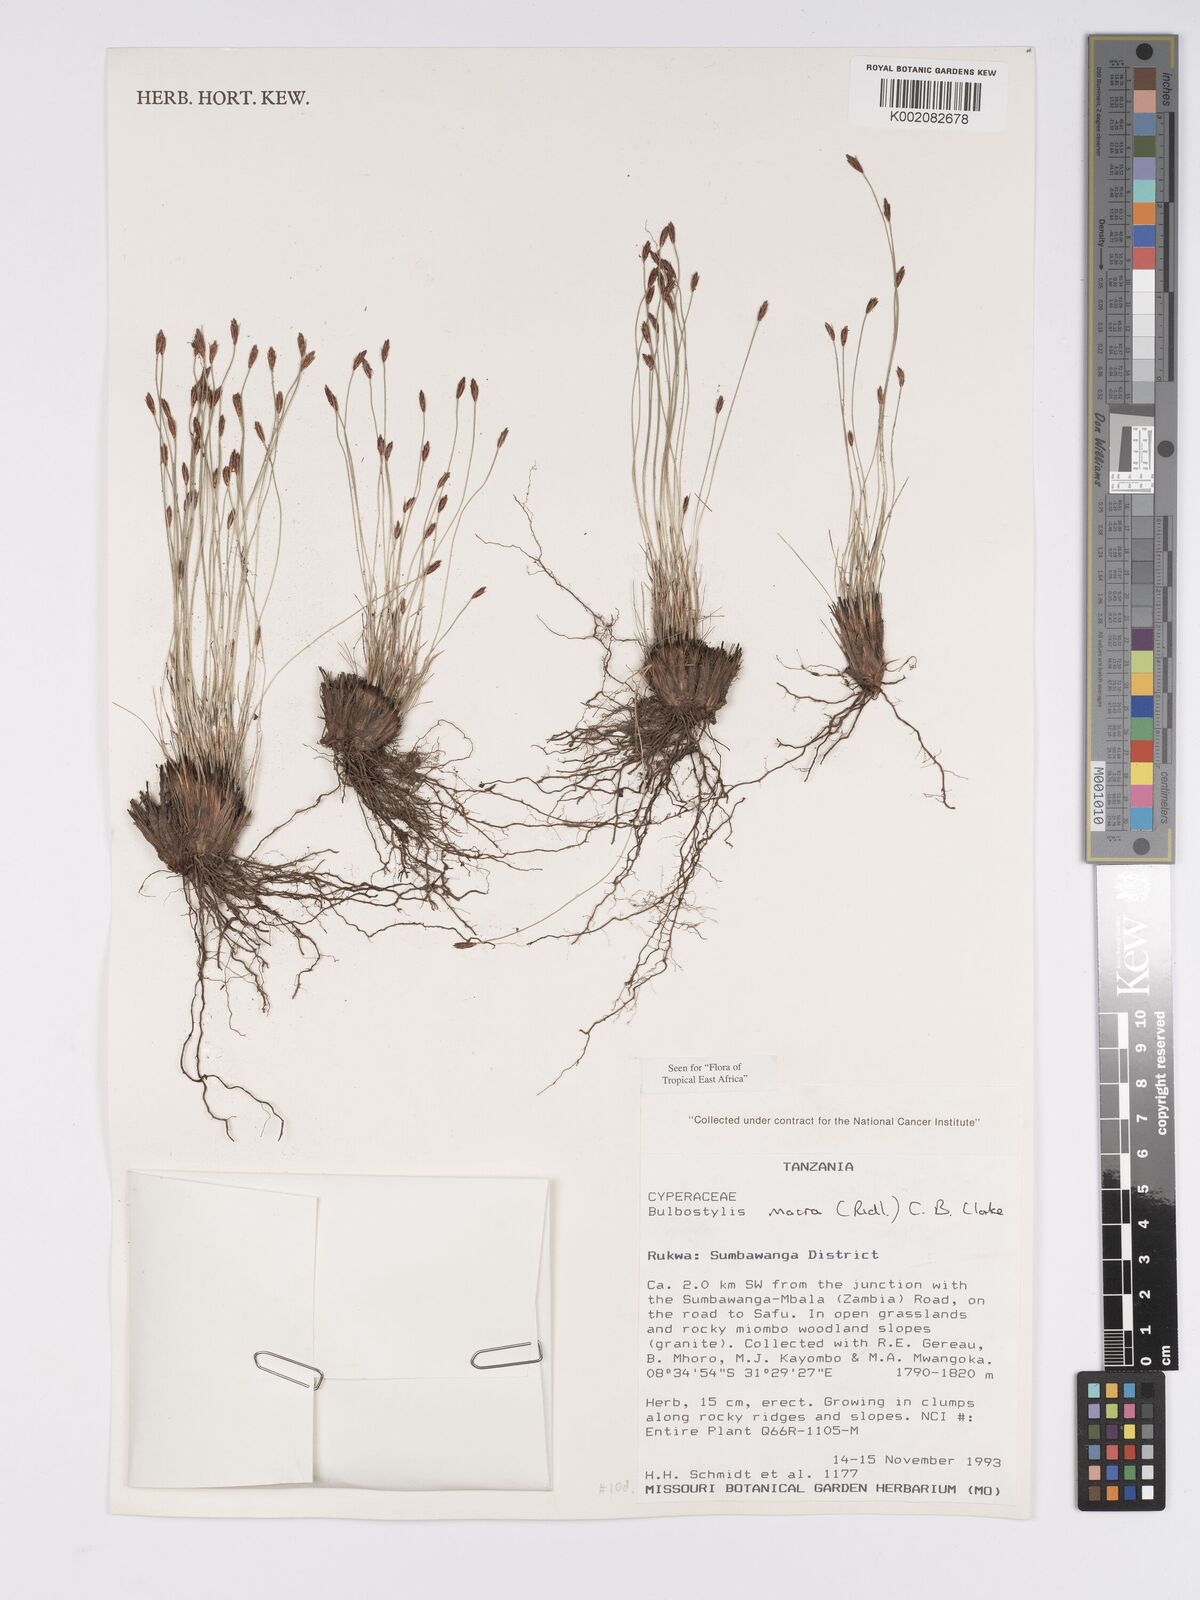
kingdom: Plantae
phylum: Tracheophyta
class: Liliopsida
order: Poales
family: Cyperaceae
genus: Bulbostylis
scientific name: Bulbostylis macra
